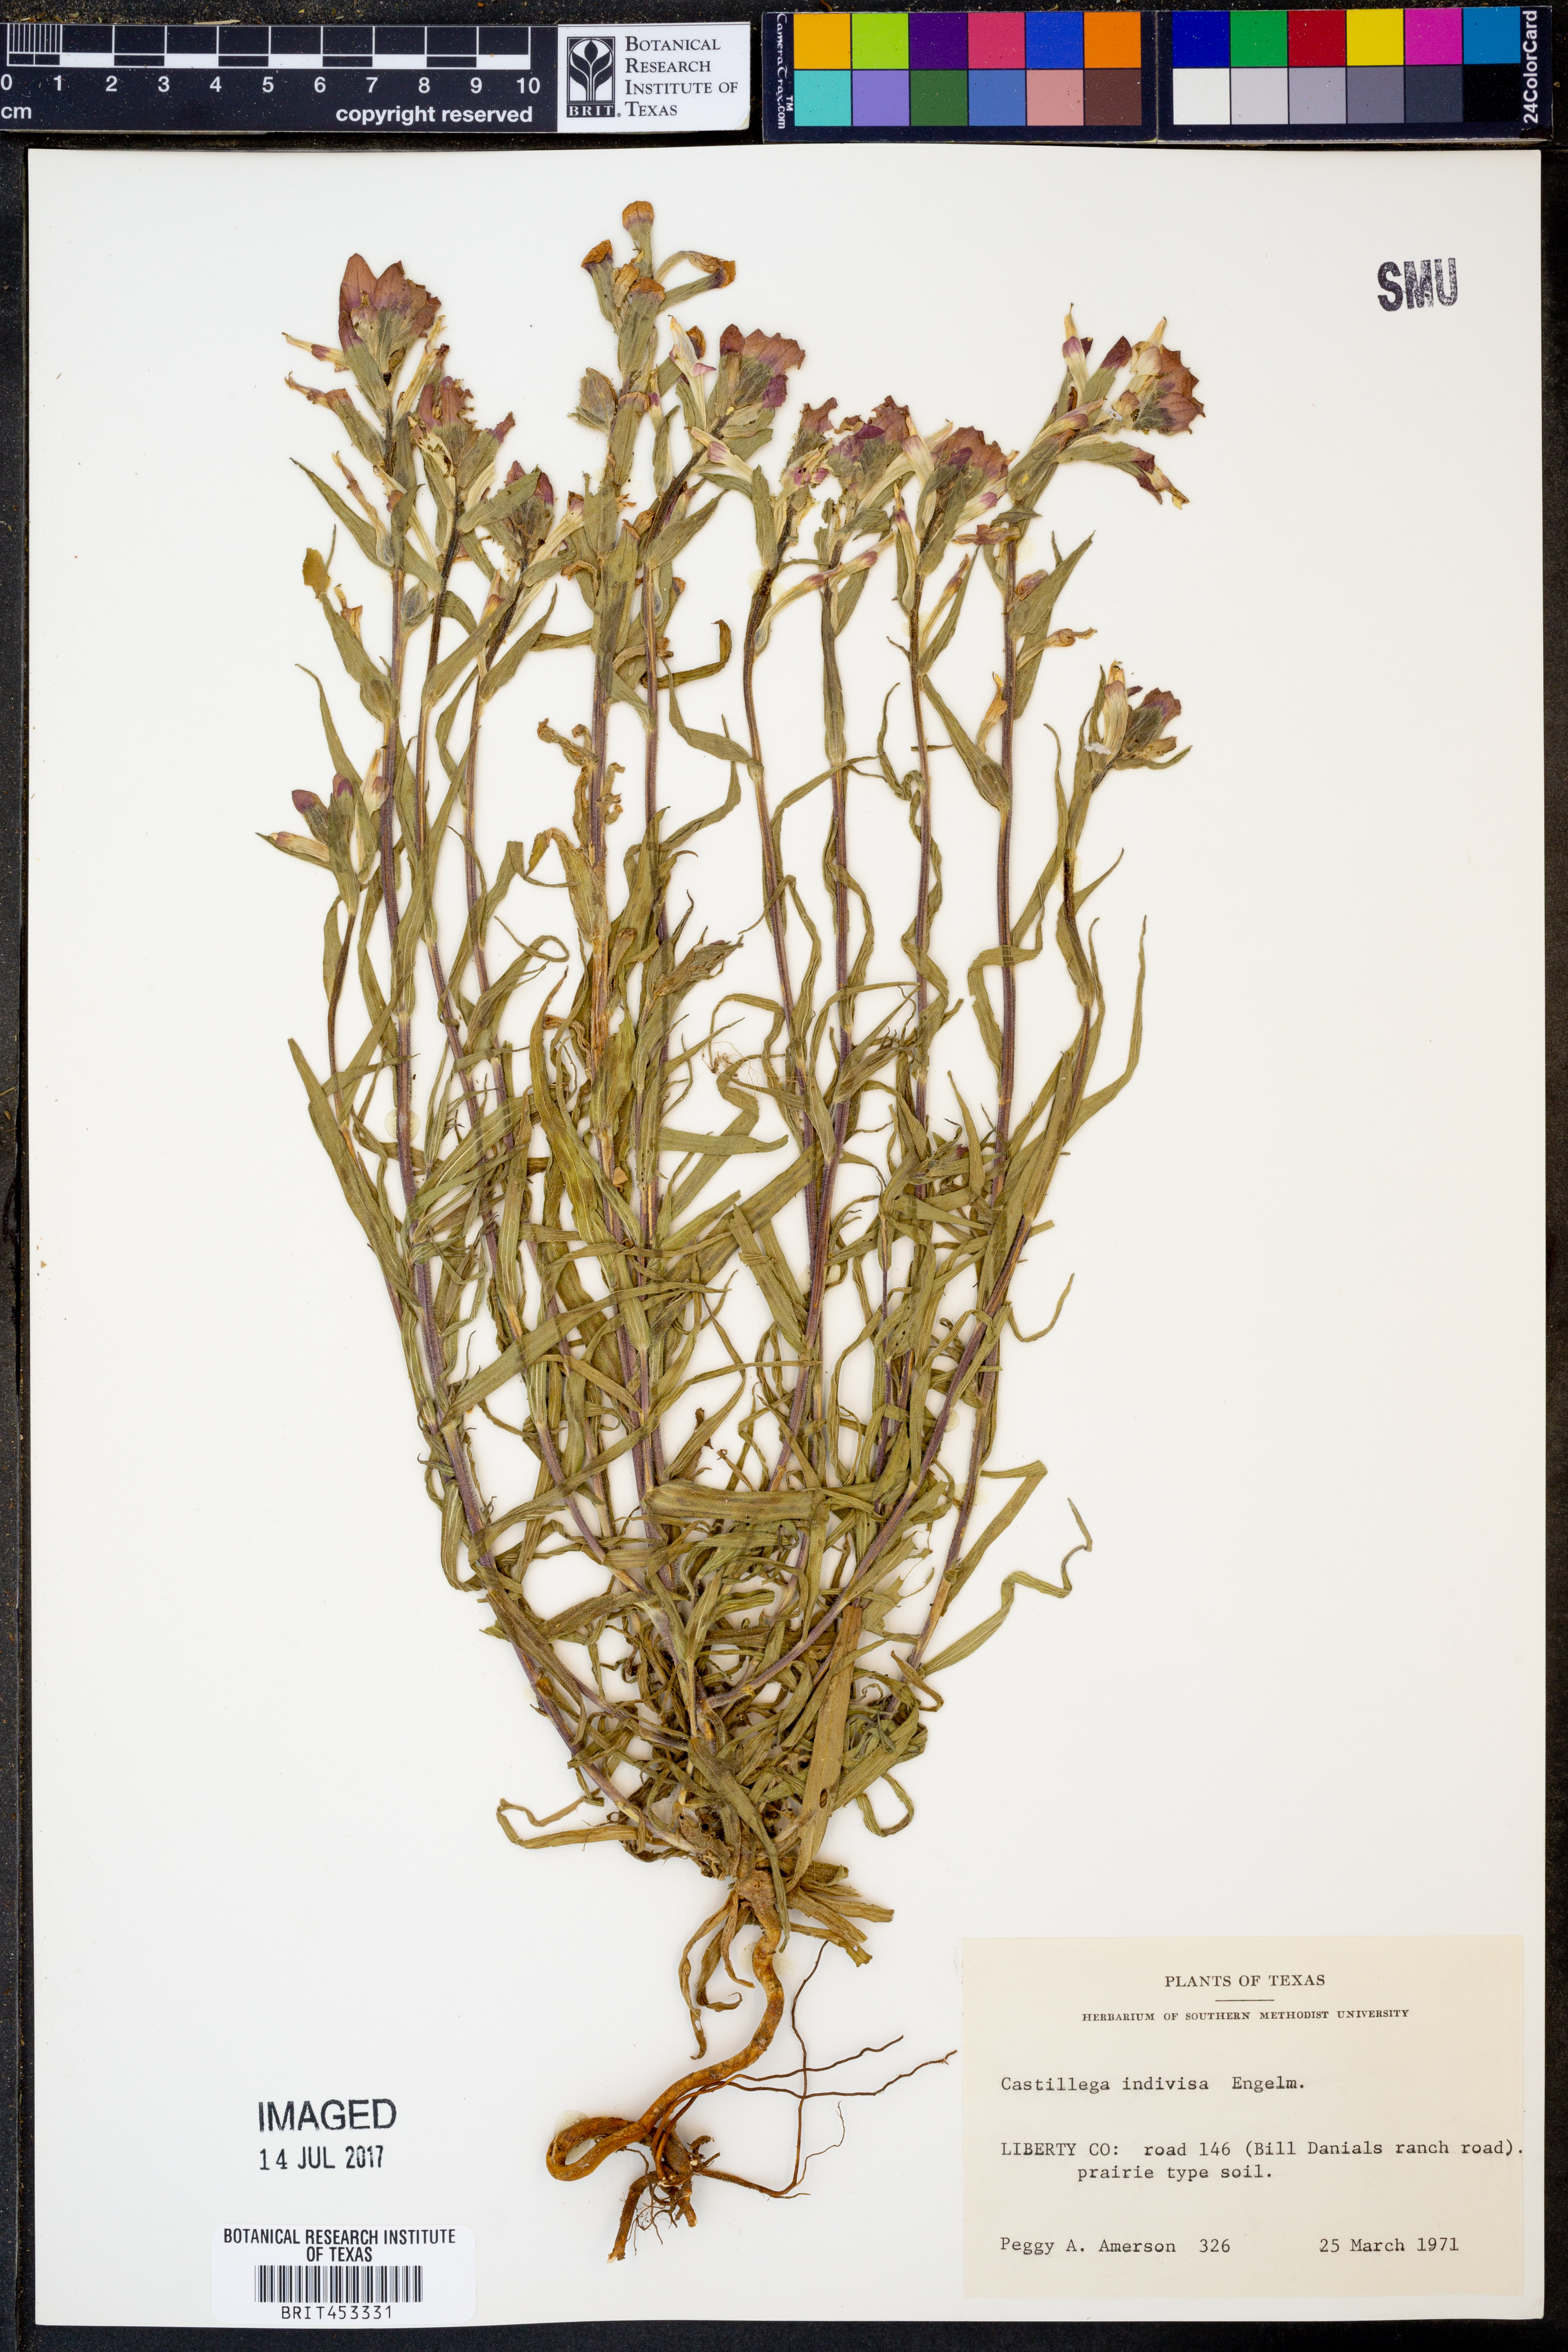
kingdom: Plantae
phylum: Tracheophyta
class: Magnoliopsida
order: Lamiales
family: Orobanchaceae
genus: Castilleja
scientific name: Castilleja indivisa
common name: Texas paintbrush
